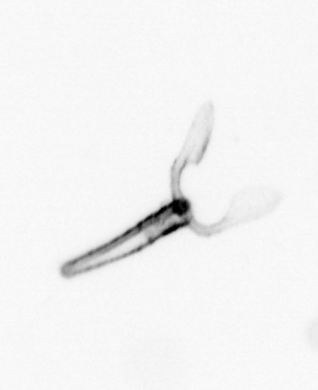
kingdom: Animalia
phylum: Mollusca
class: Gastropoda
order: Pteropoda
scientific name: Pteropoda
